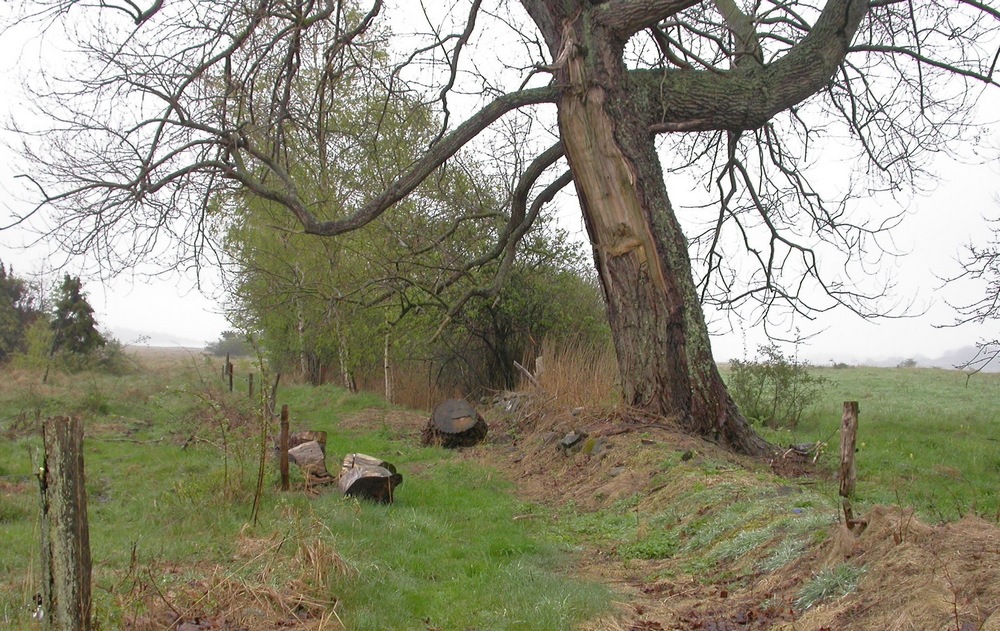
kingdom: Fungi
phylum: Ascomycota
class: Pezizomycetes
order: Pezizales
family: Morchellaceae
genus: Morchella
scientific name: Morchella esculenta
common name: spiselig morkel
